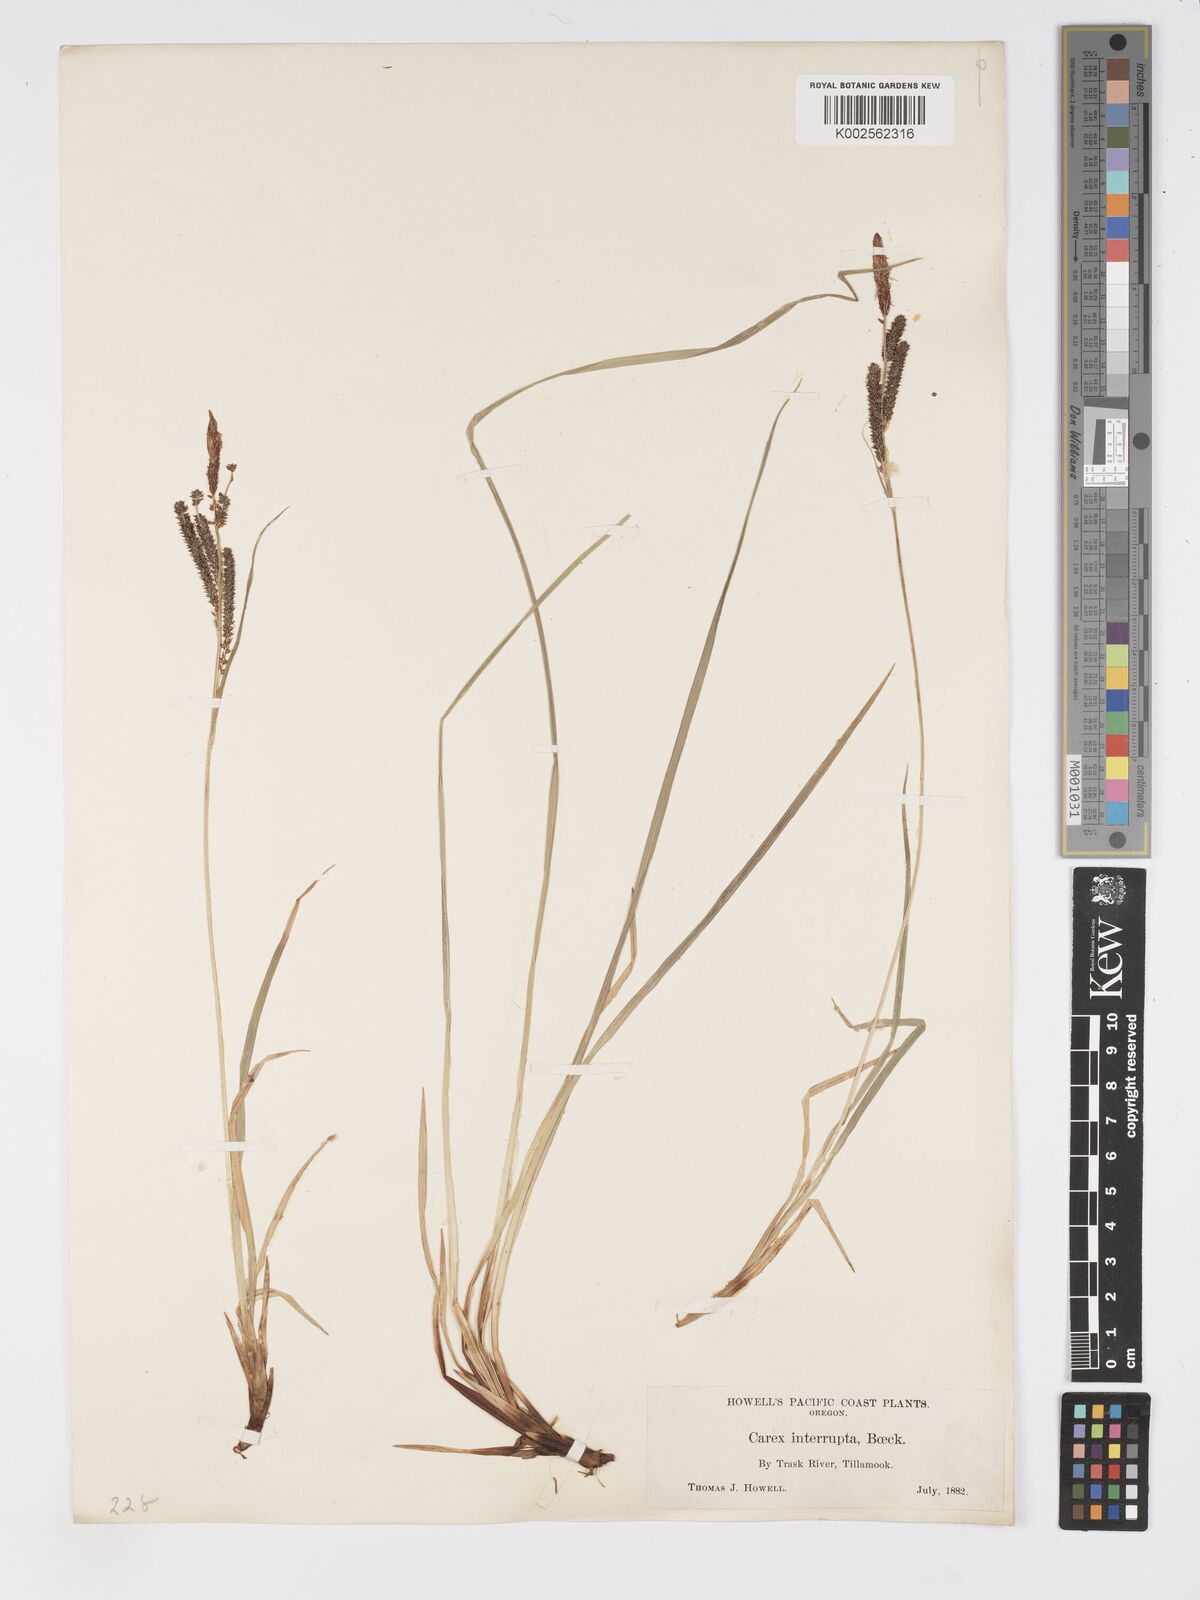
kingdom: Plantae
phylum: Tracheophyta
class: Liliopsida
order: Poales
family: Cyperaceae
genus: Carex
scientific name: Carex interrupta
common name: Green-fruited sedge
